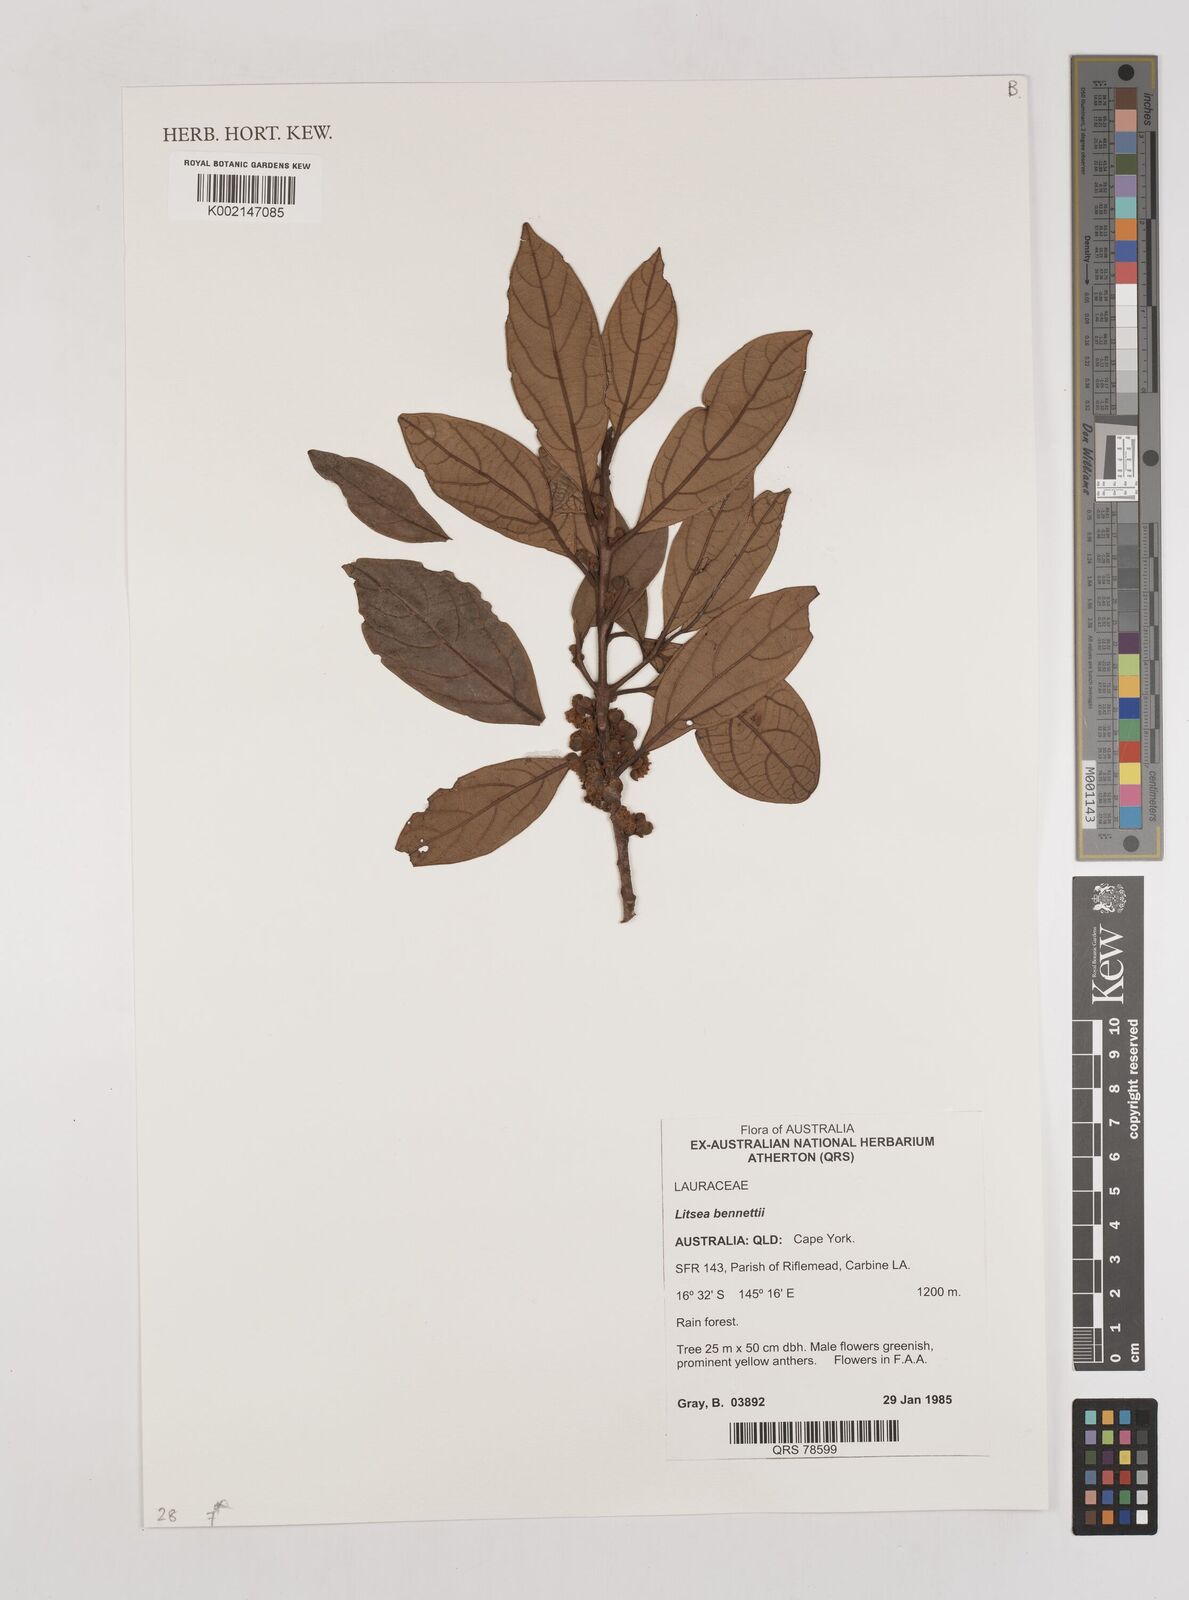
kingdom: Plantae
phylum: Tracheophyta
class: Magnoliopsida
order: Laurales
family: Lauraceae
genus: Litsea
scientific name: Litsea bennettii
